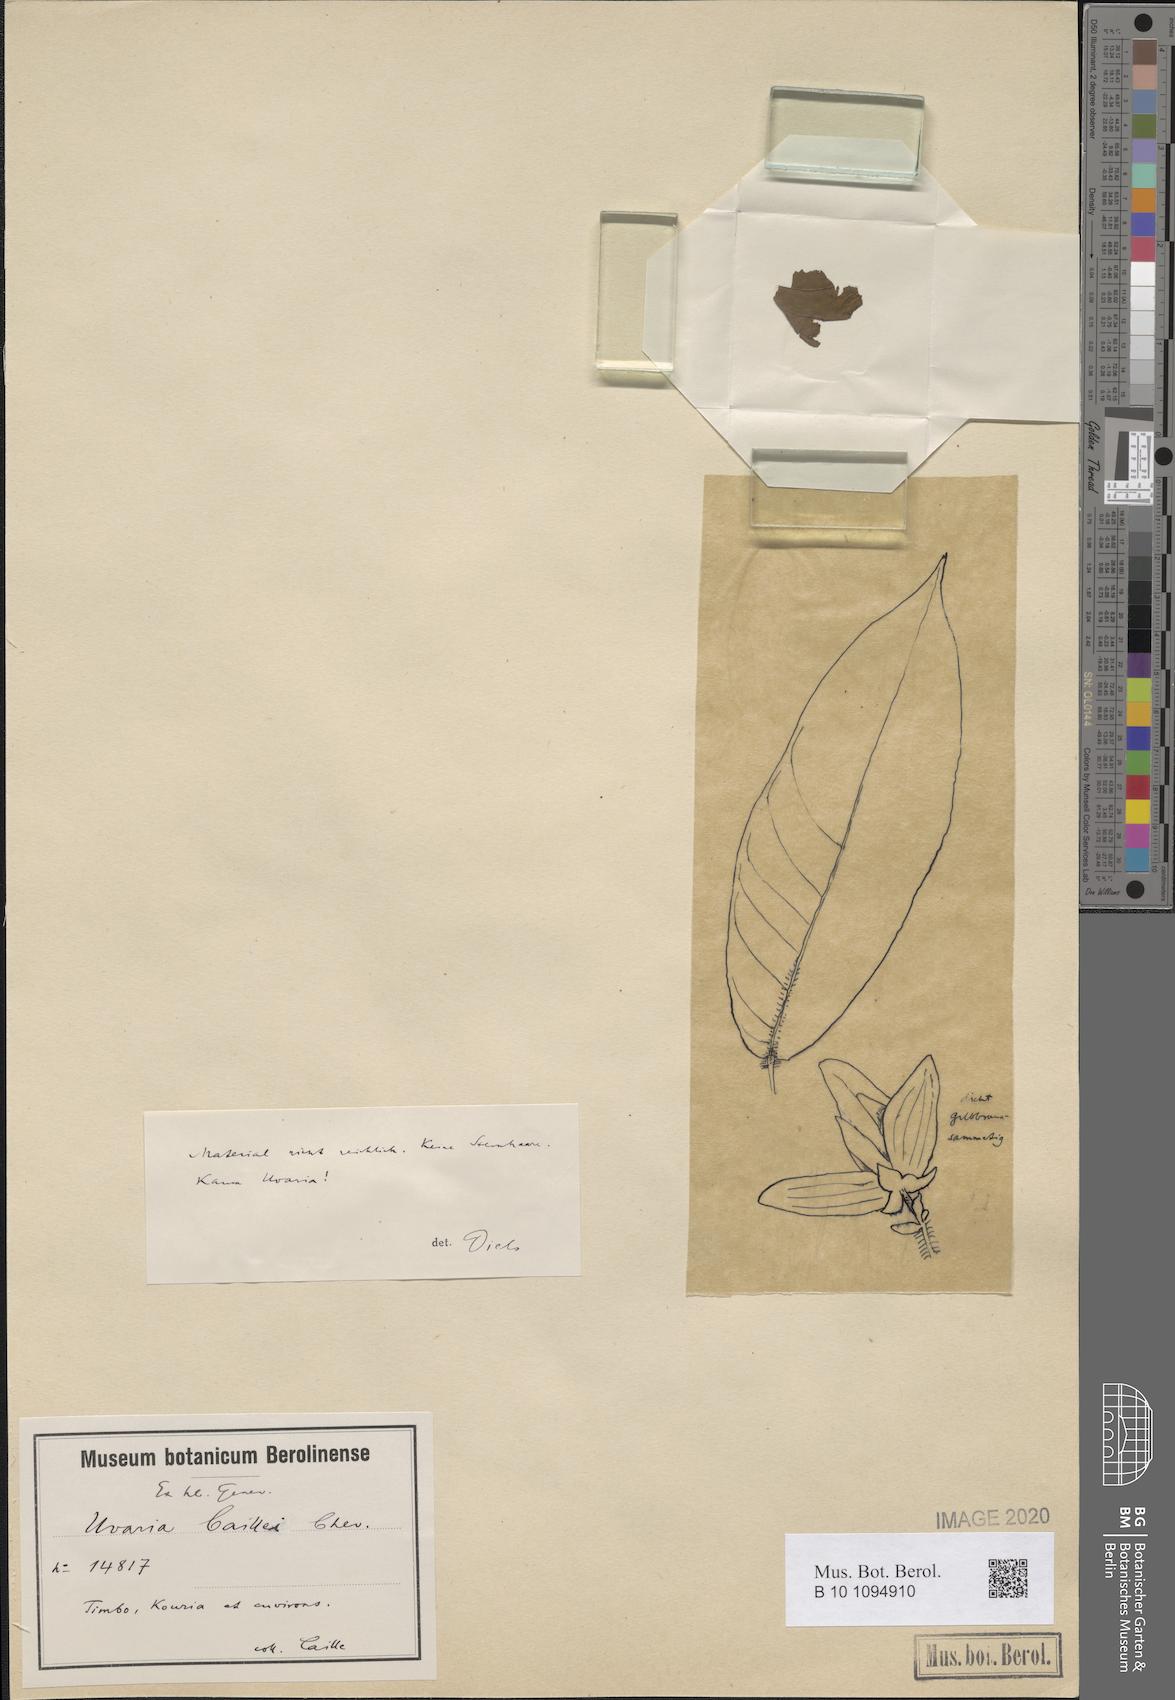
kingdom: Plantae
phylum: Tracheophyta
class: Magnoliopsida
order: Magnoliales
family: Annonaceae
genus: Friesodielsia
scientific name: Friesodielsia hirsuta
